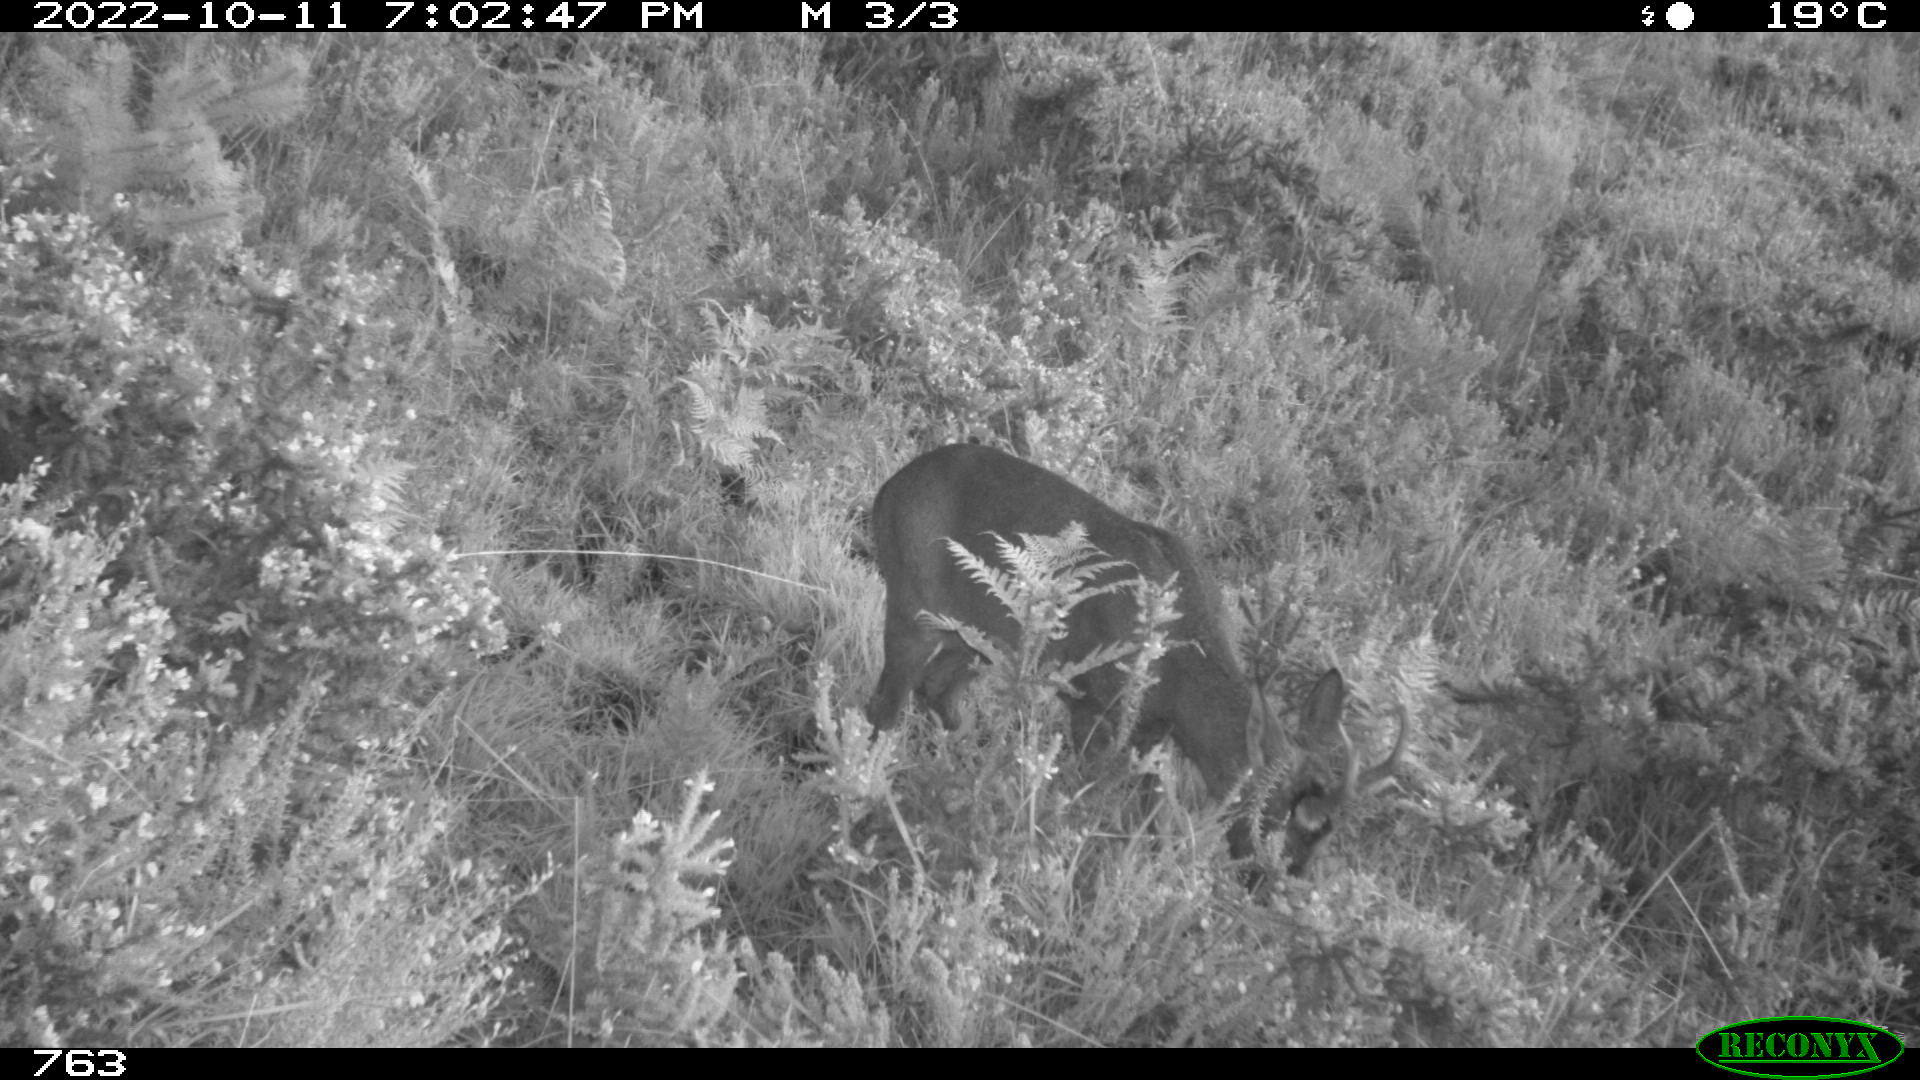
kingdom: Animalia
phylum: Chordata
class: Mammalia
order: Artiodactyla
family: Cervidae
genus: Capreolus
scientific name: Capreolus capreolus
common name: Western roe deer
